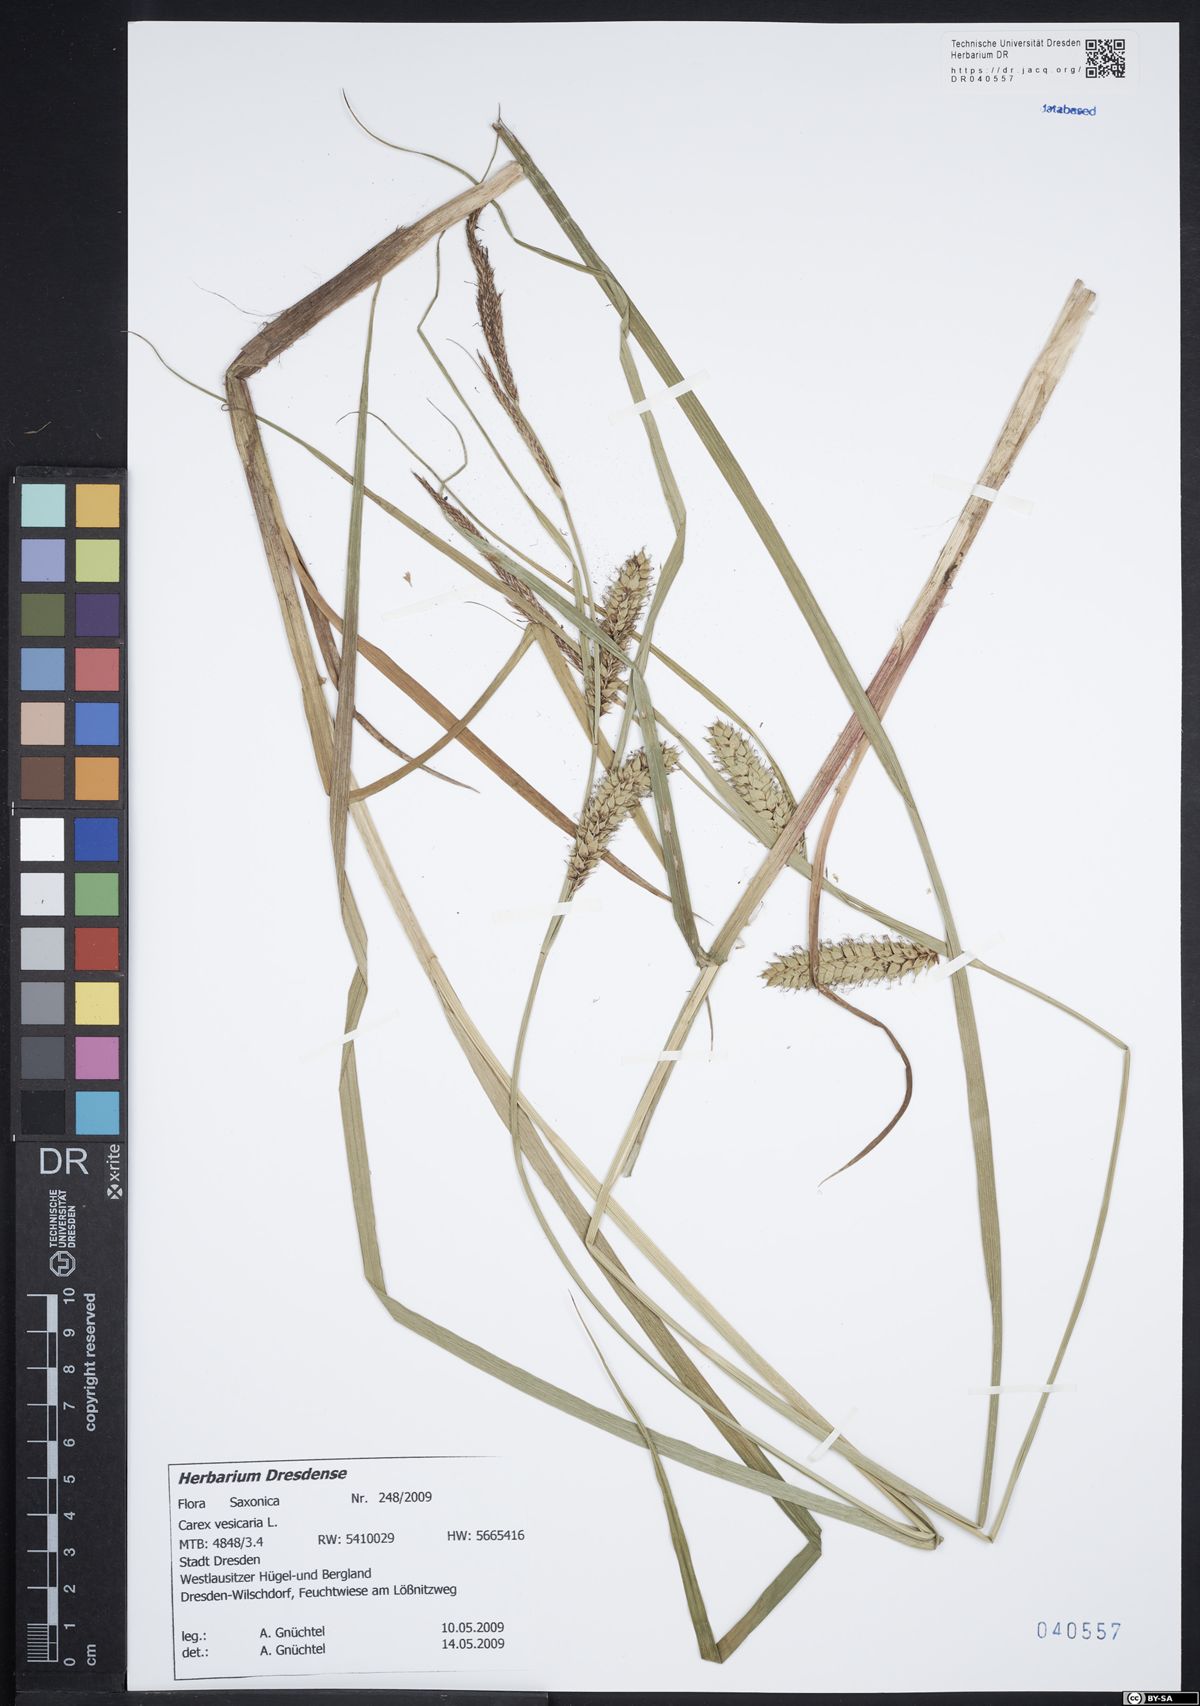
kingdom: Plantae
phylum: Tracheophyta
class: Liliopsida
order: Poales
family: Cyperaceae
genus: Carex
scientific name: Carex vesicaria
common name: Bladder-sedge
